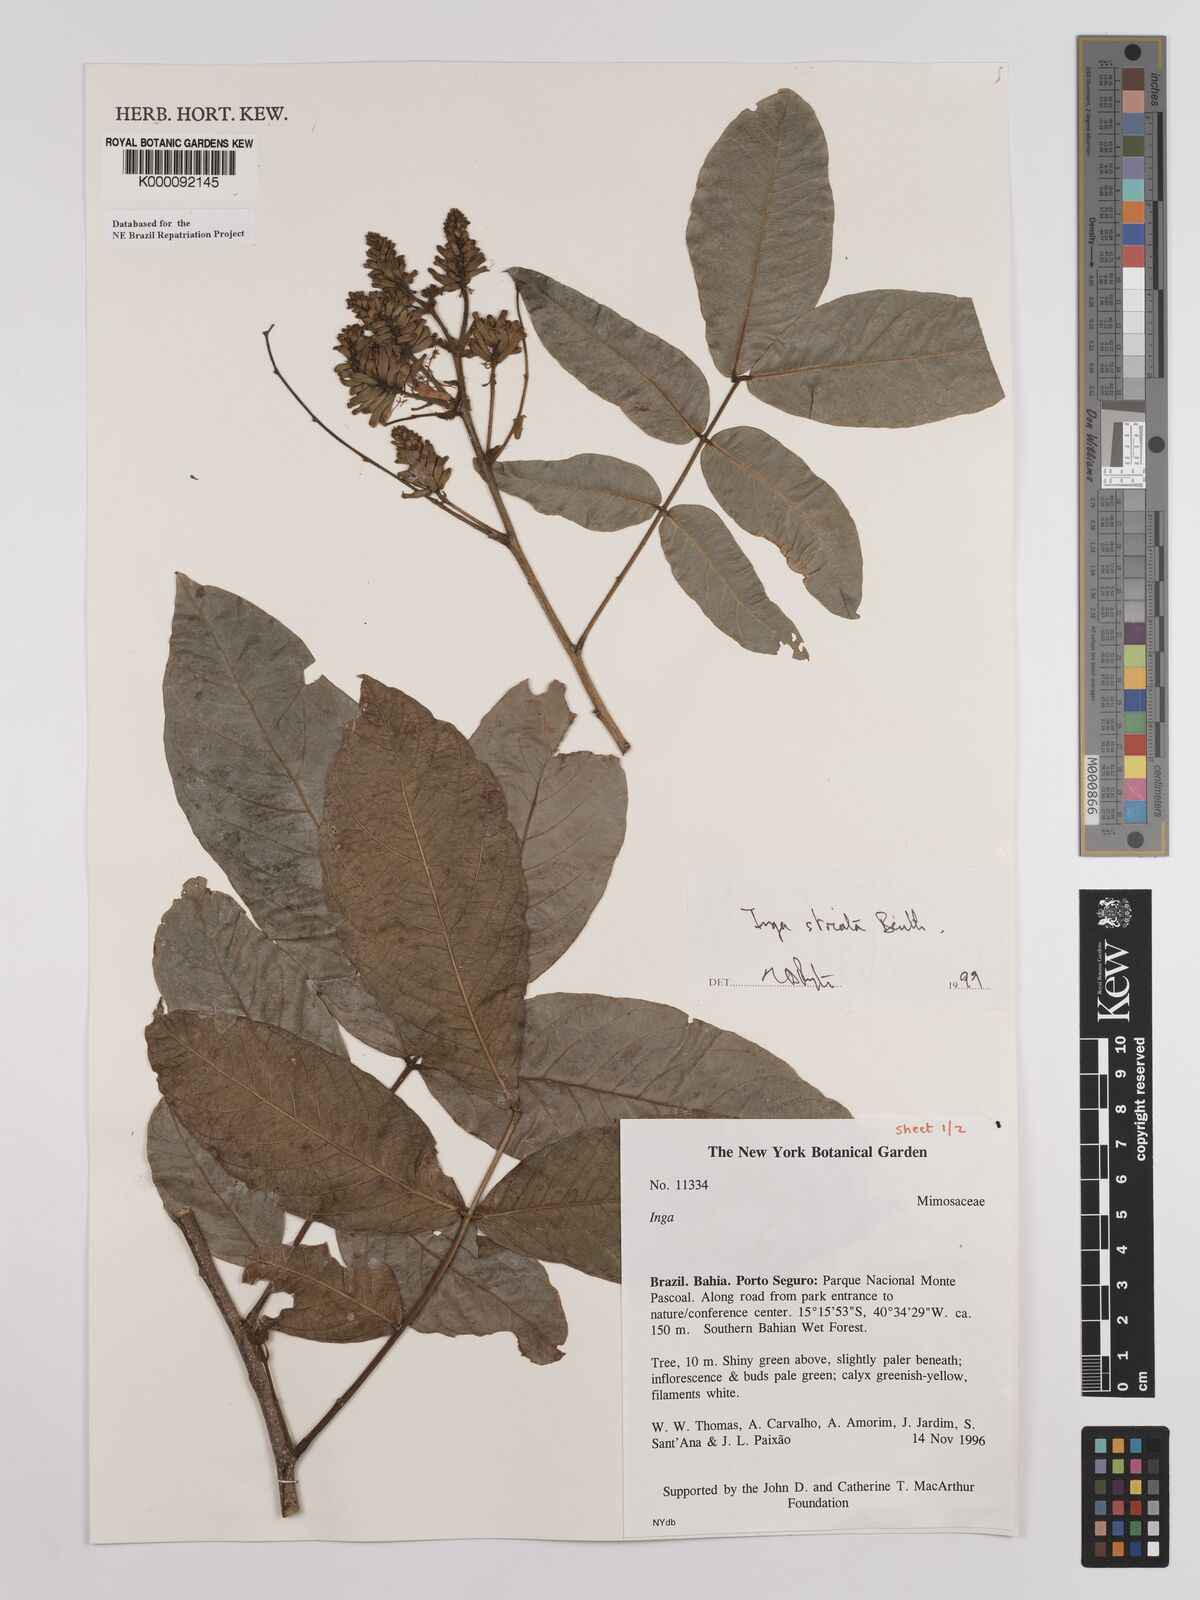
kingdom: Plantae
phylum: Tracheophyta
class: Magnoliopsida
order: Fabales
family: Fabaceae
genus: Inga
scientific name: Inga striata
